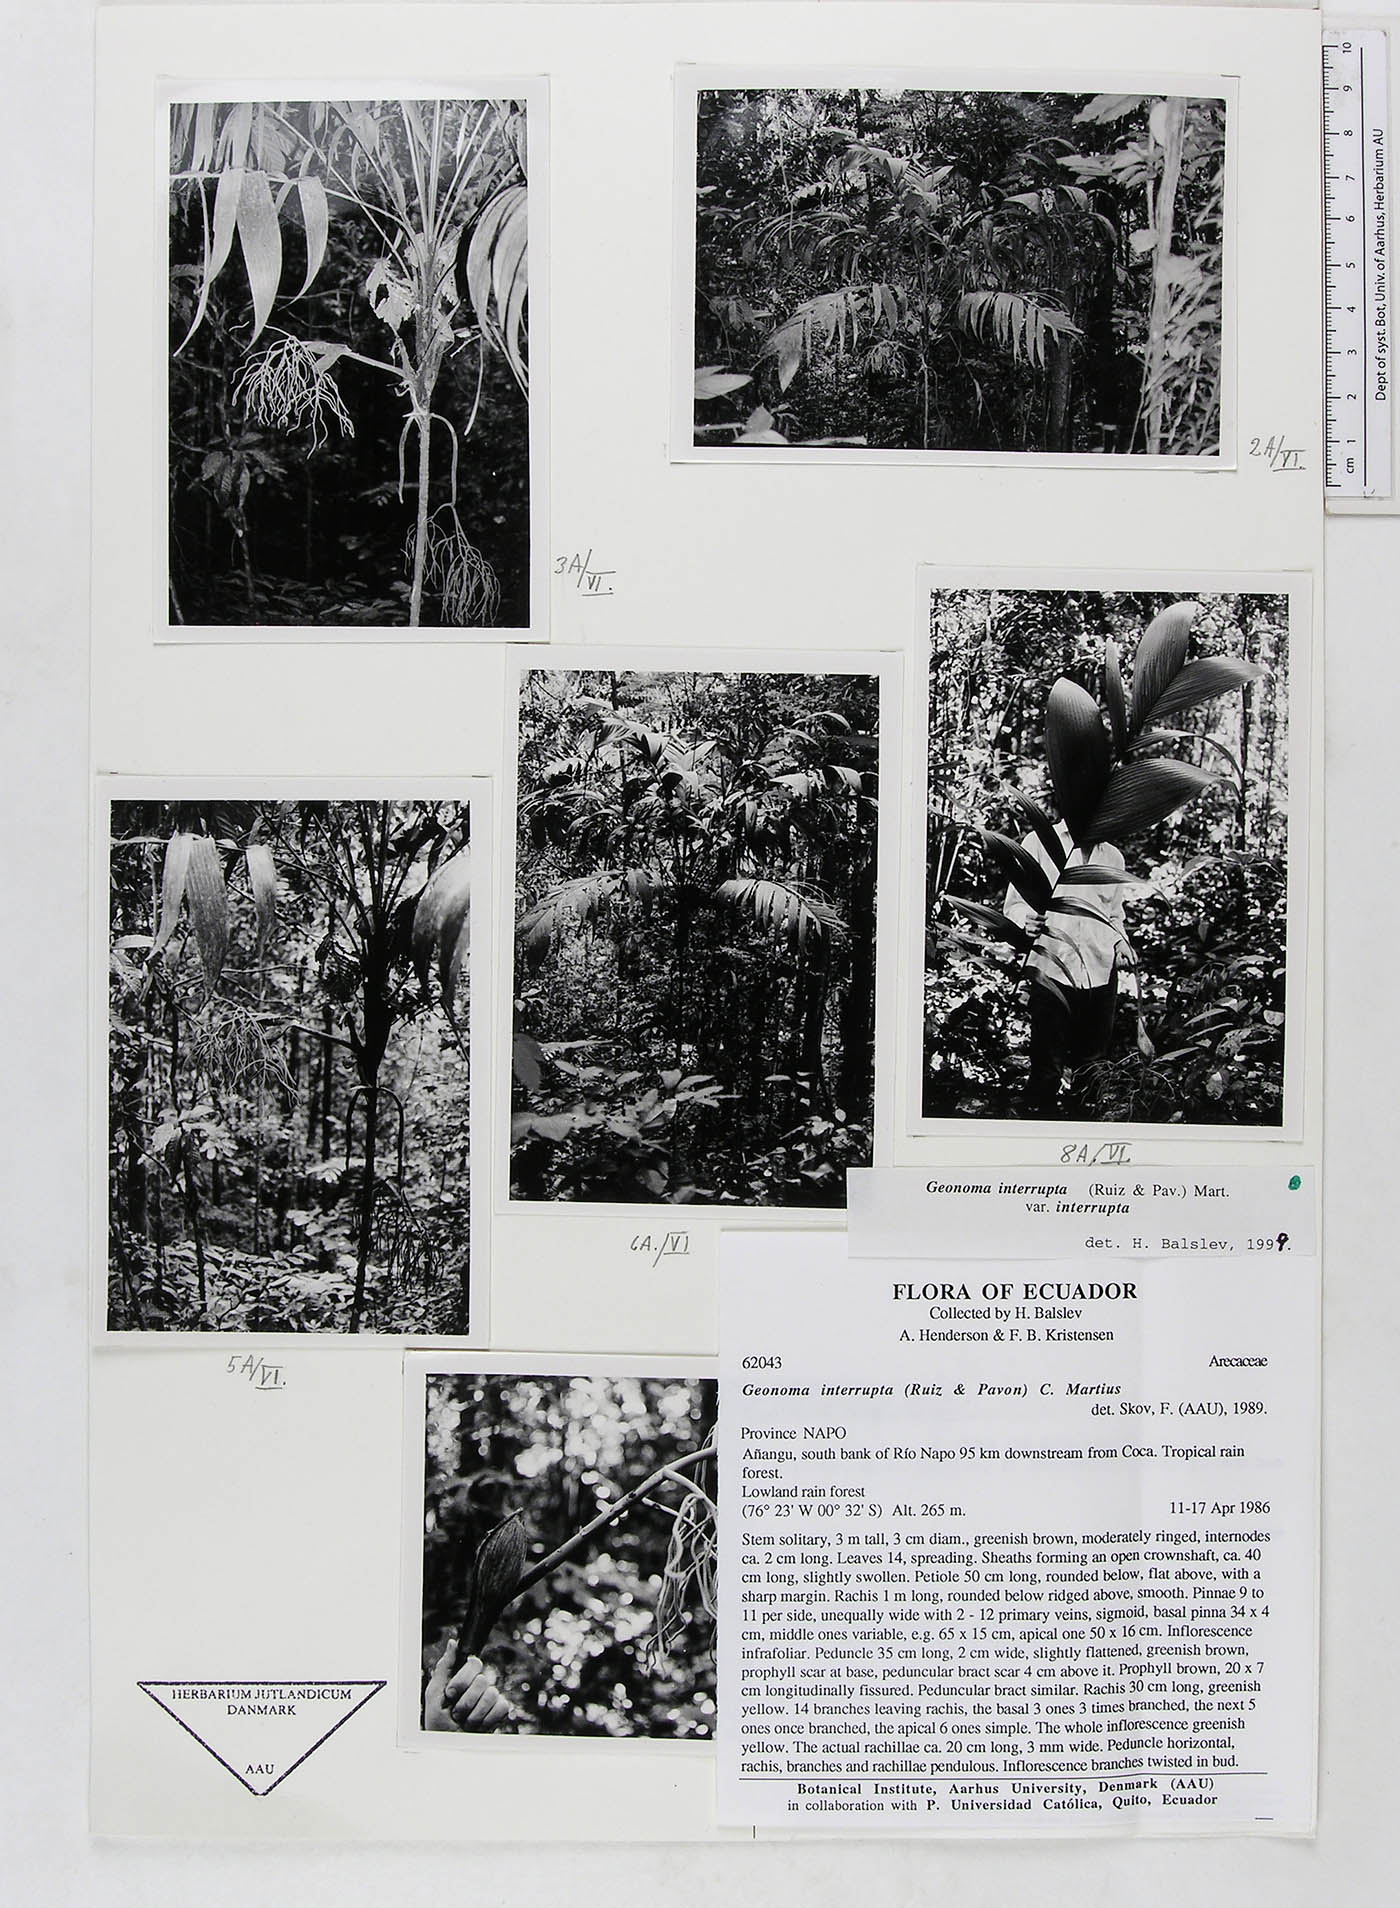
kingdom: Plantae
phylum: Tracheophyta
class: Liliopsida
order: Arecales
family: Arecaceae
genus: Geonoma
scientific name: Geonoma interrupta
